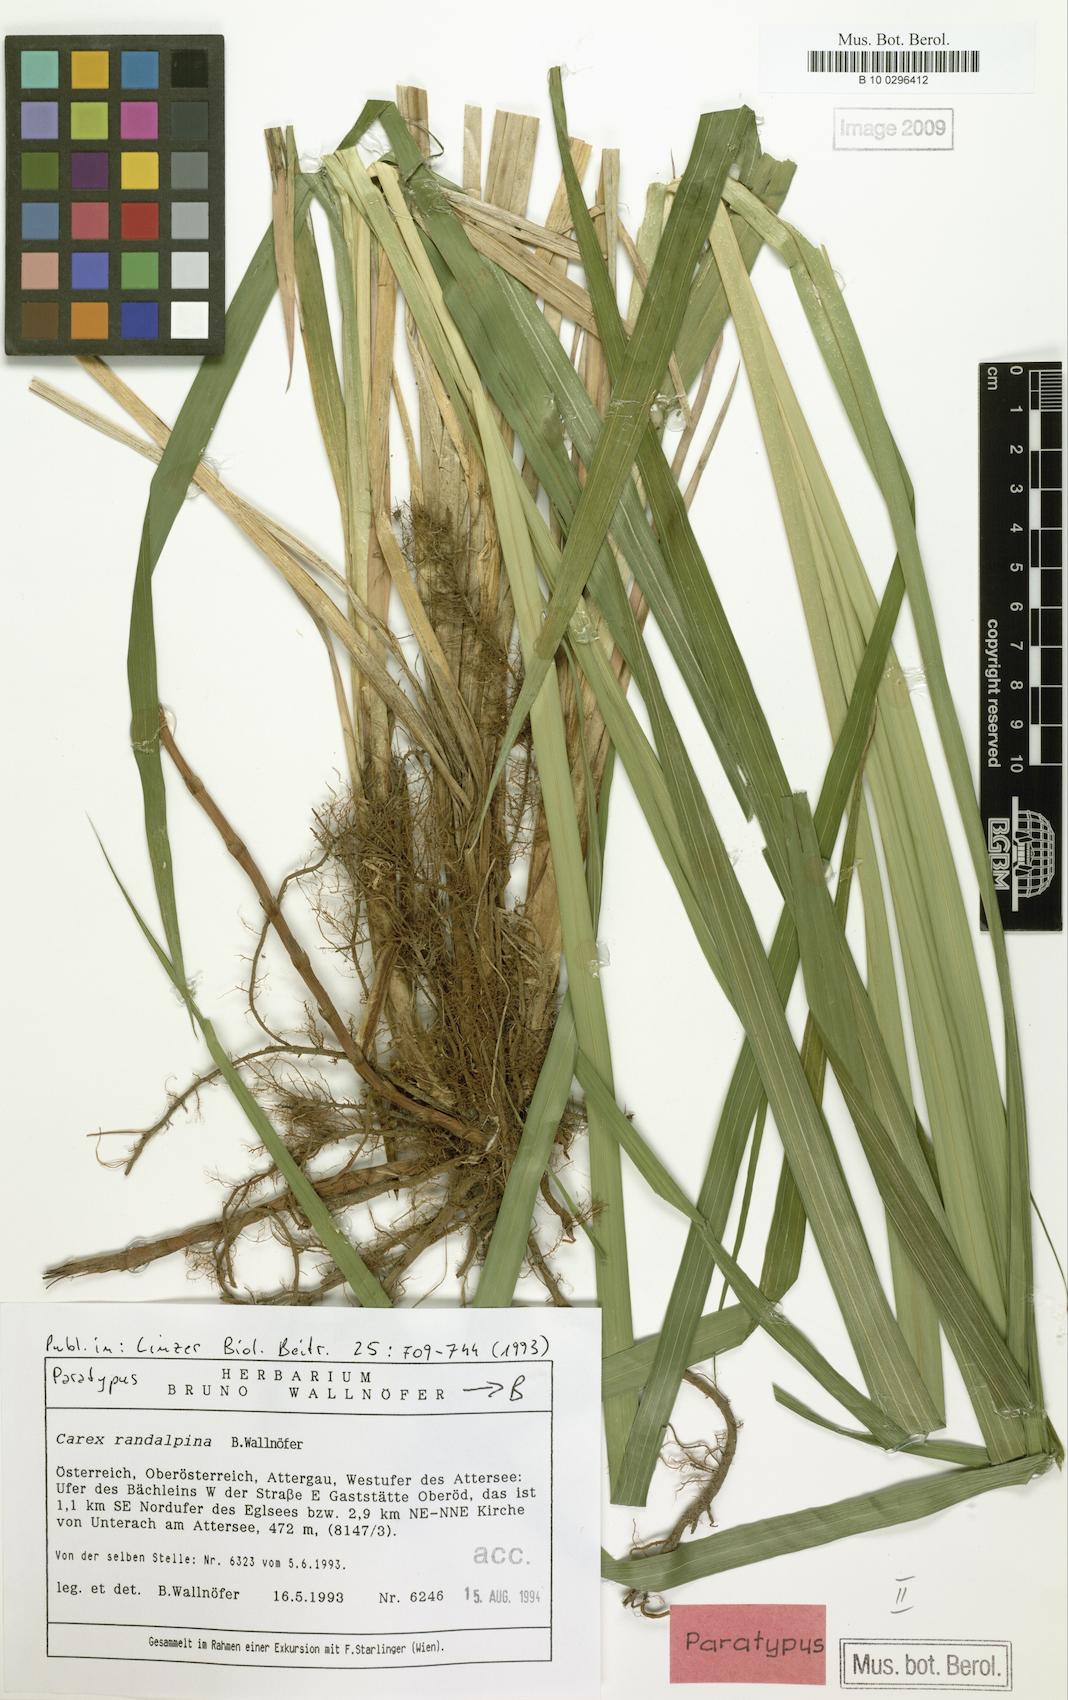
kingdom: Plantae
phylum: Tracheophyta
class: Liliopsida
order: Poales
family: Cyperaceae
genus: Carex
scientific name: Carex randalpina
